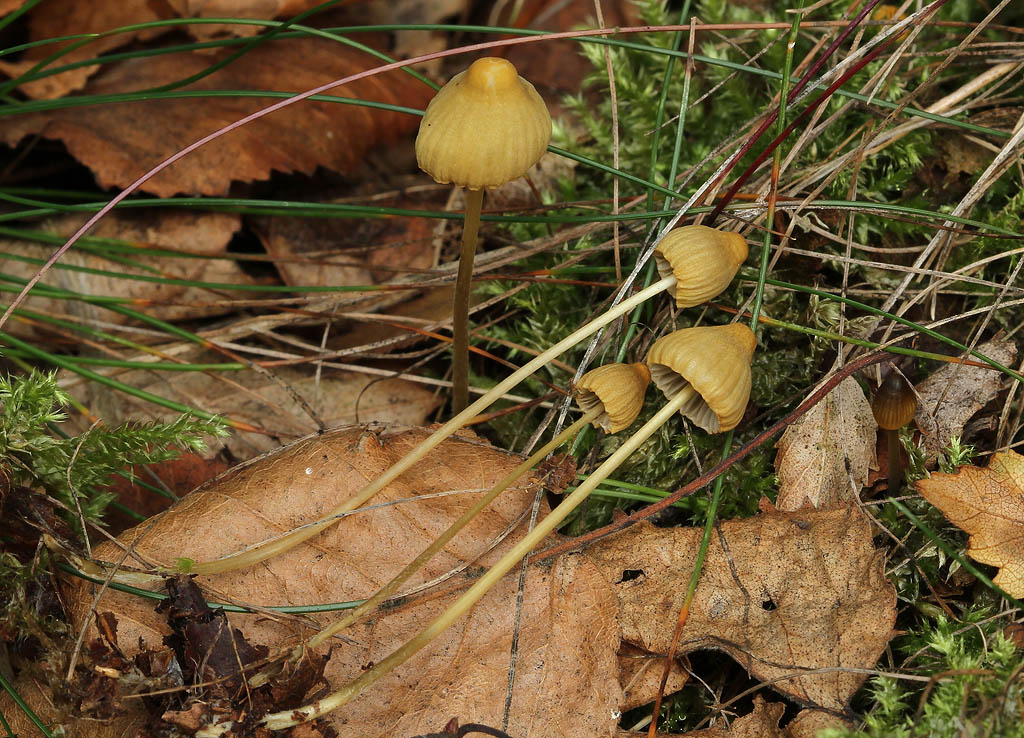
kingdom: Fungi
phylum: Basidiomycota
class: Agaricomycetes
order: Agaricales
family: Mycenaceae
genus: Mycena
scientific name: Mycena citrinomarginata
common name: gulægget huesvamp
